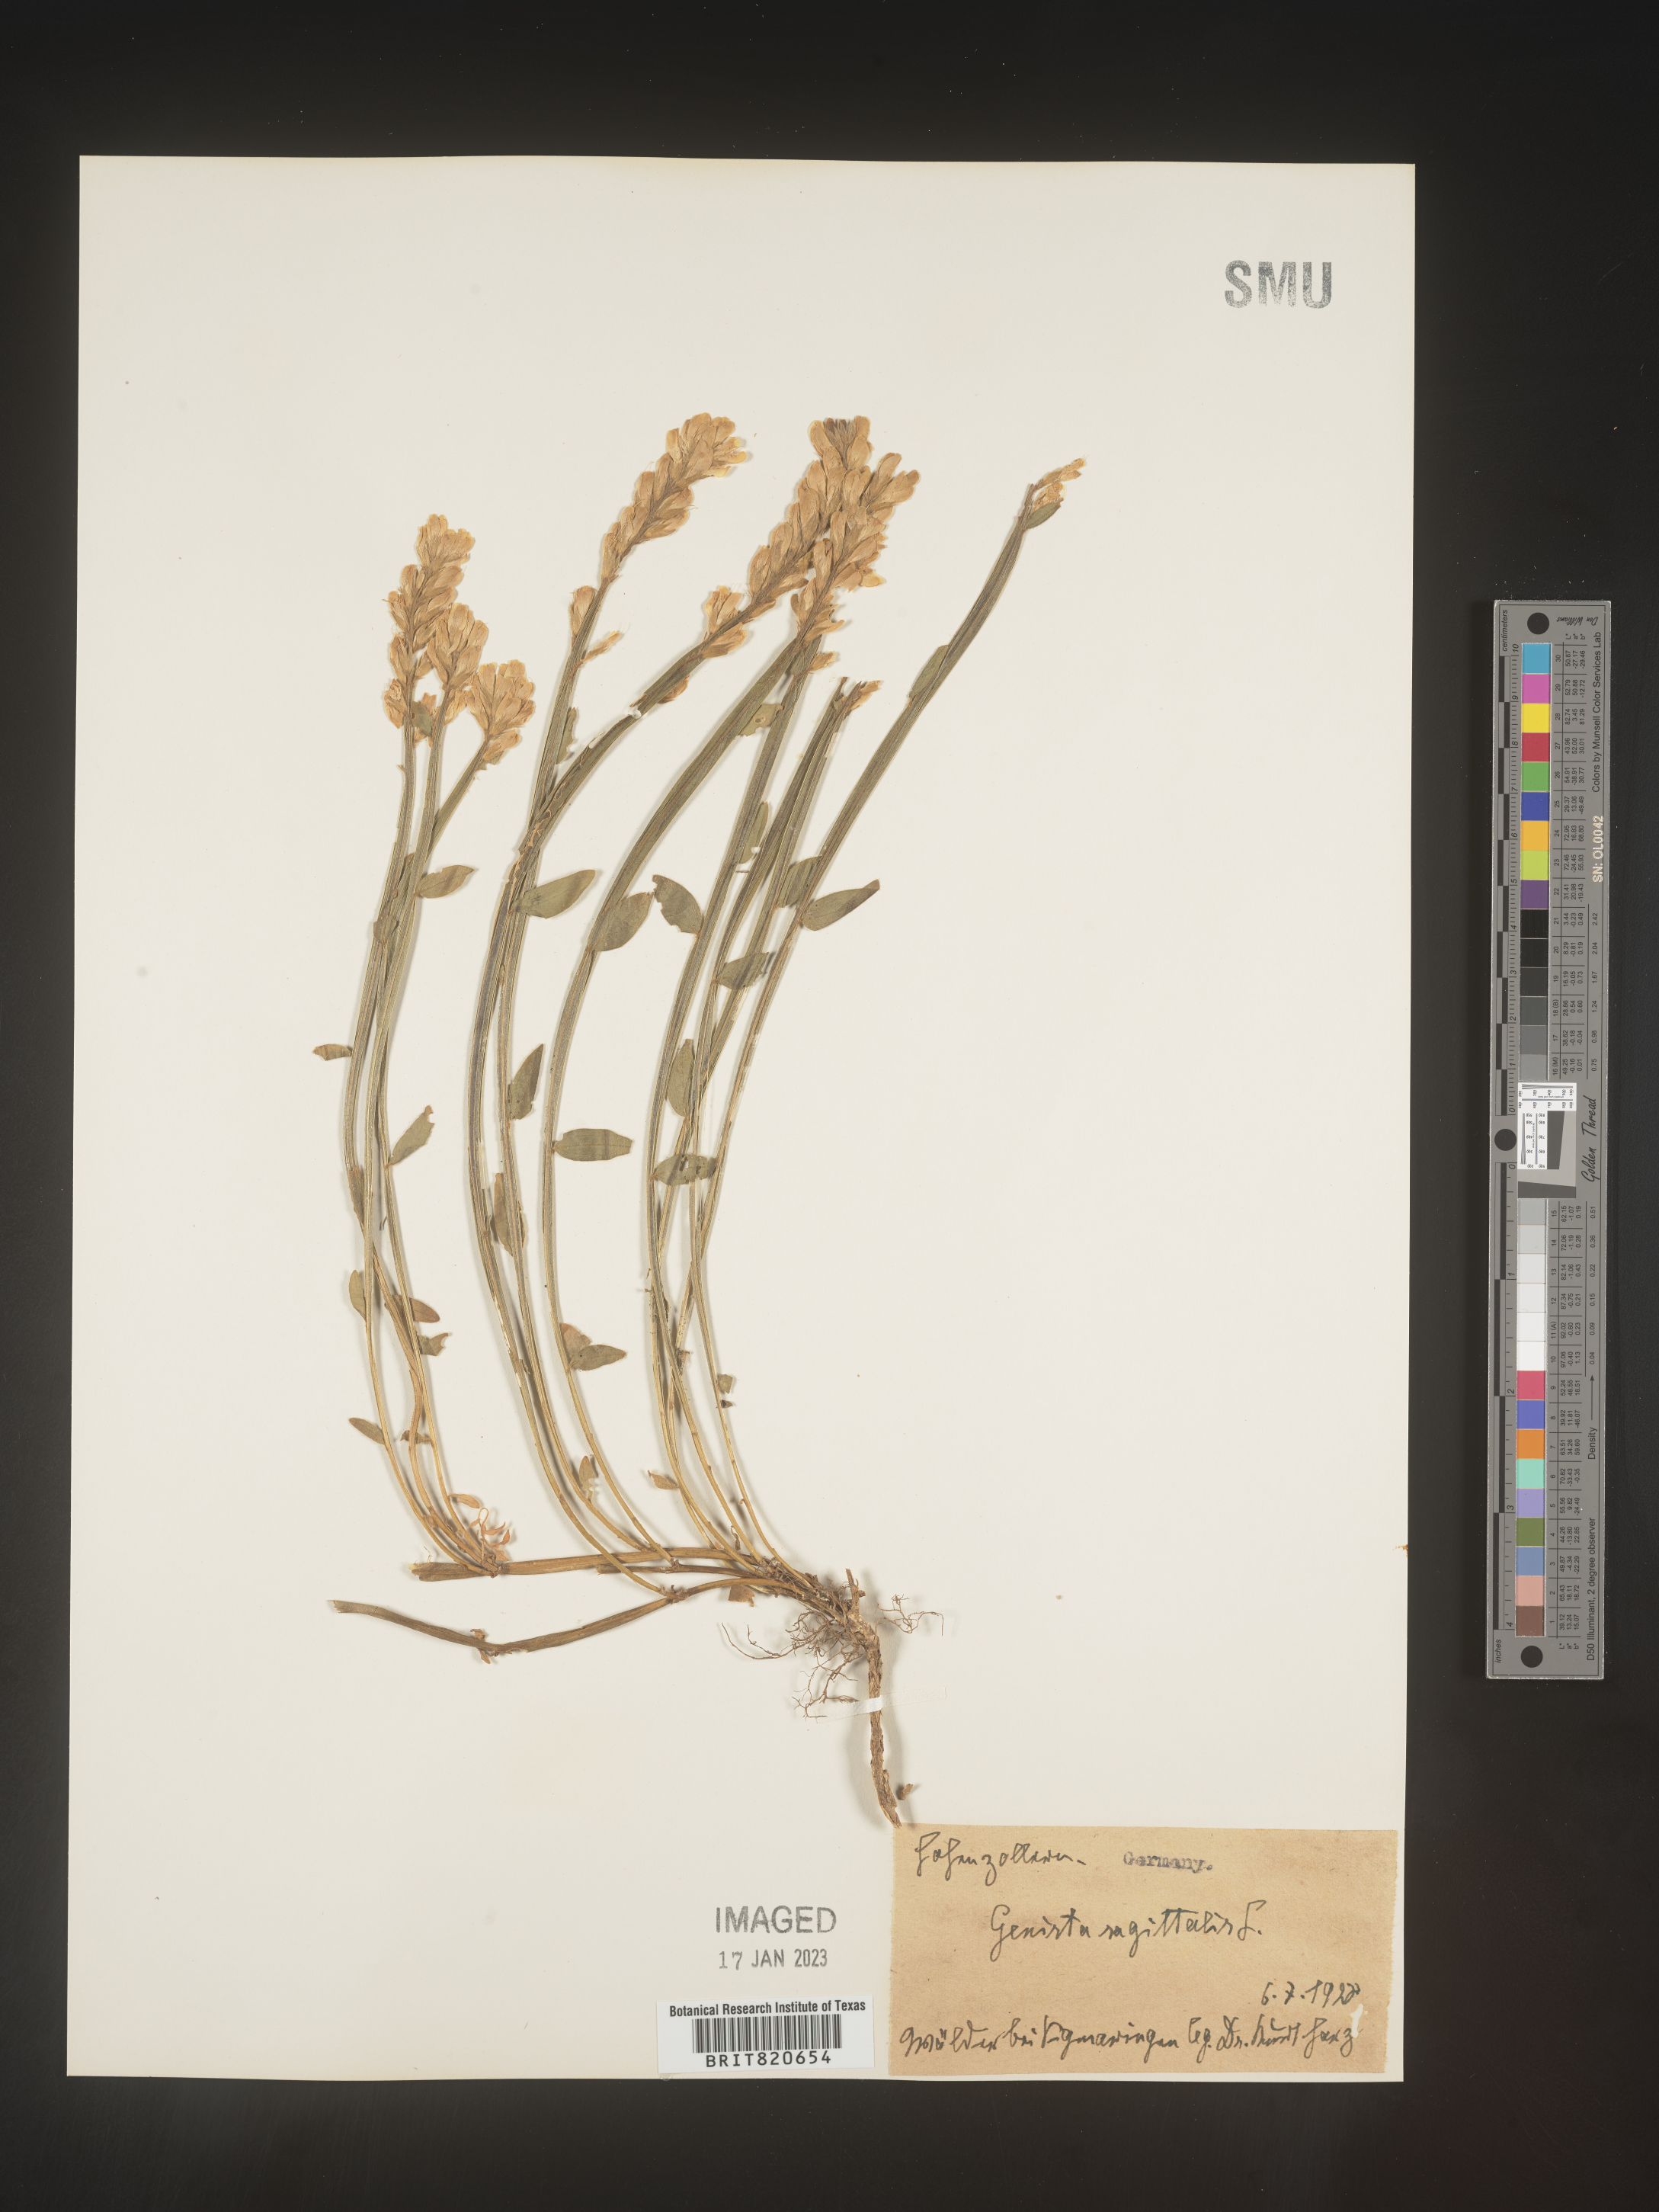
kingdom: Plantae
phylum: Tracheophyta
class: Magnoliopsida
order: Fabales
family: Fabaceae
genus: Genista
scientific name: Genista
